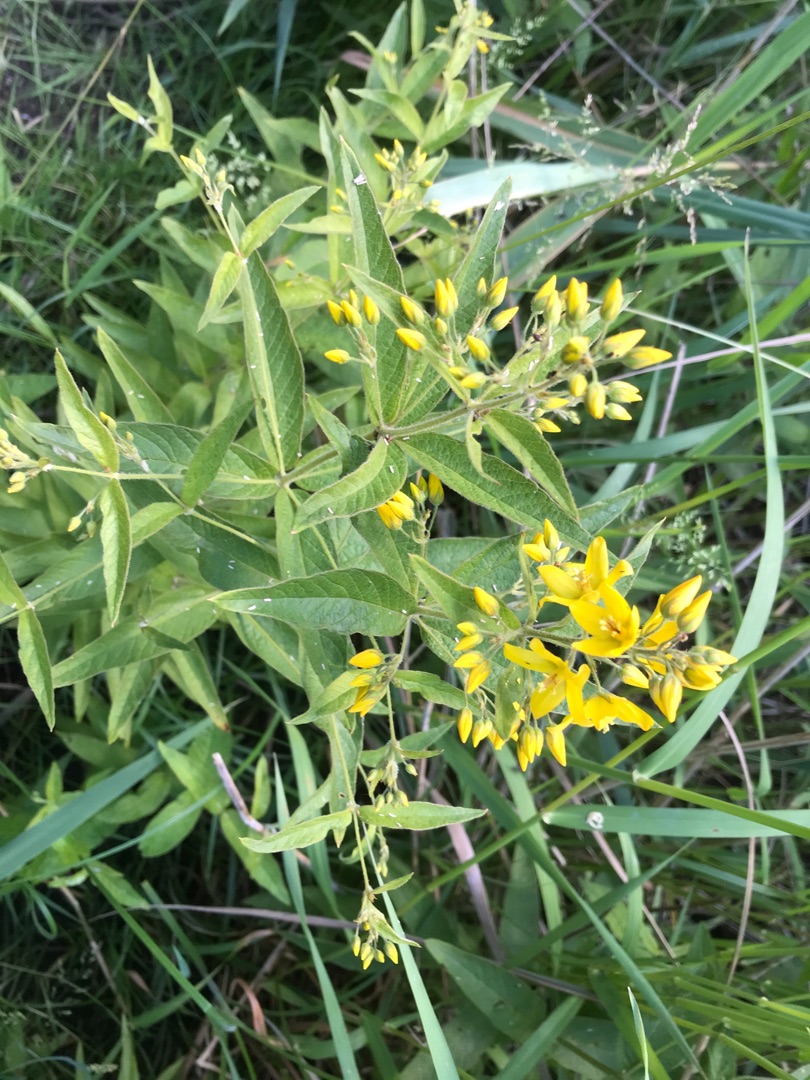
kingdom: Plantae
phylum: Tracheophyta
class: Magnoliopsida
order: Ericales
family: Primulaceae
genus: Lysimachia
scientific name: Lysimachia vulgaris
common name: Almindelig fredløs
